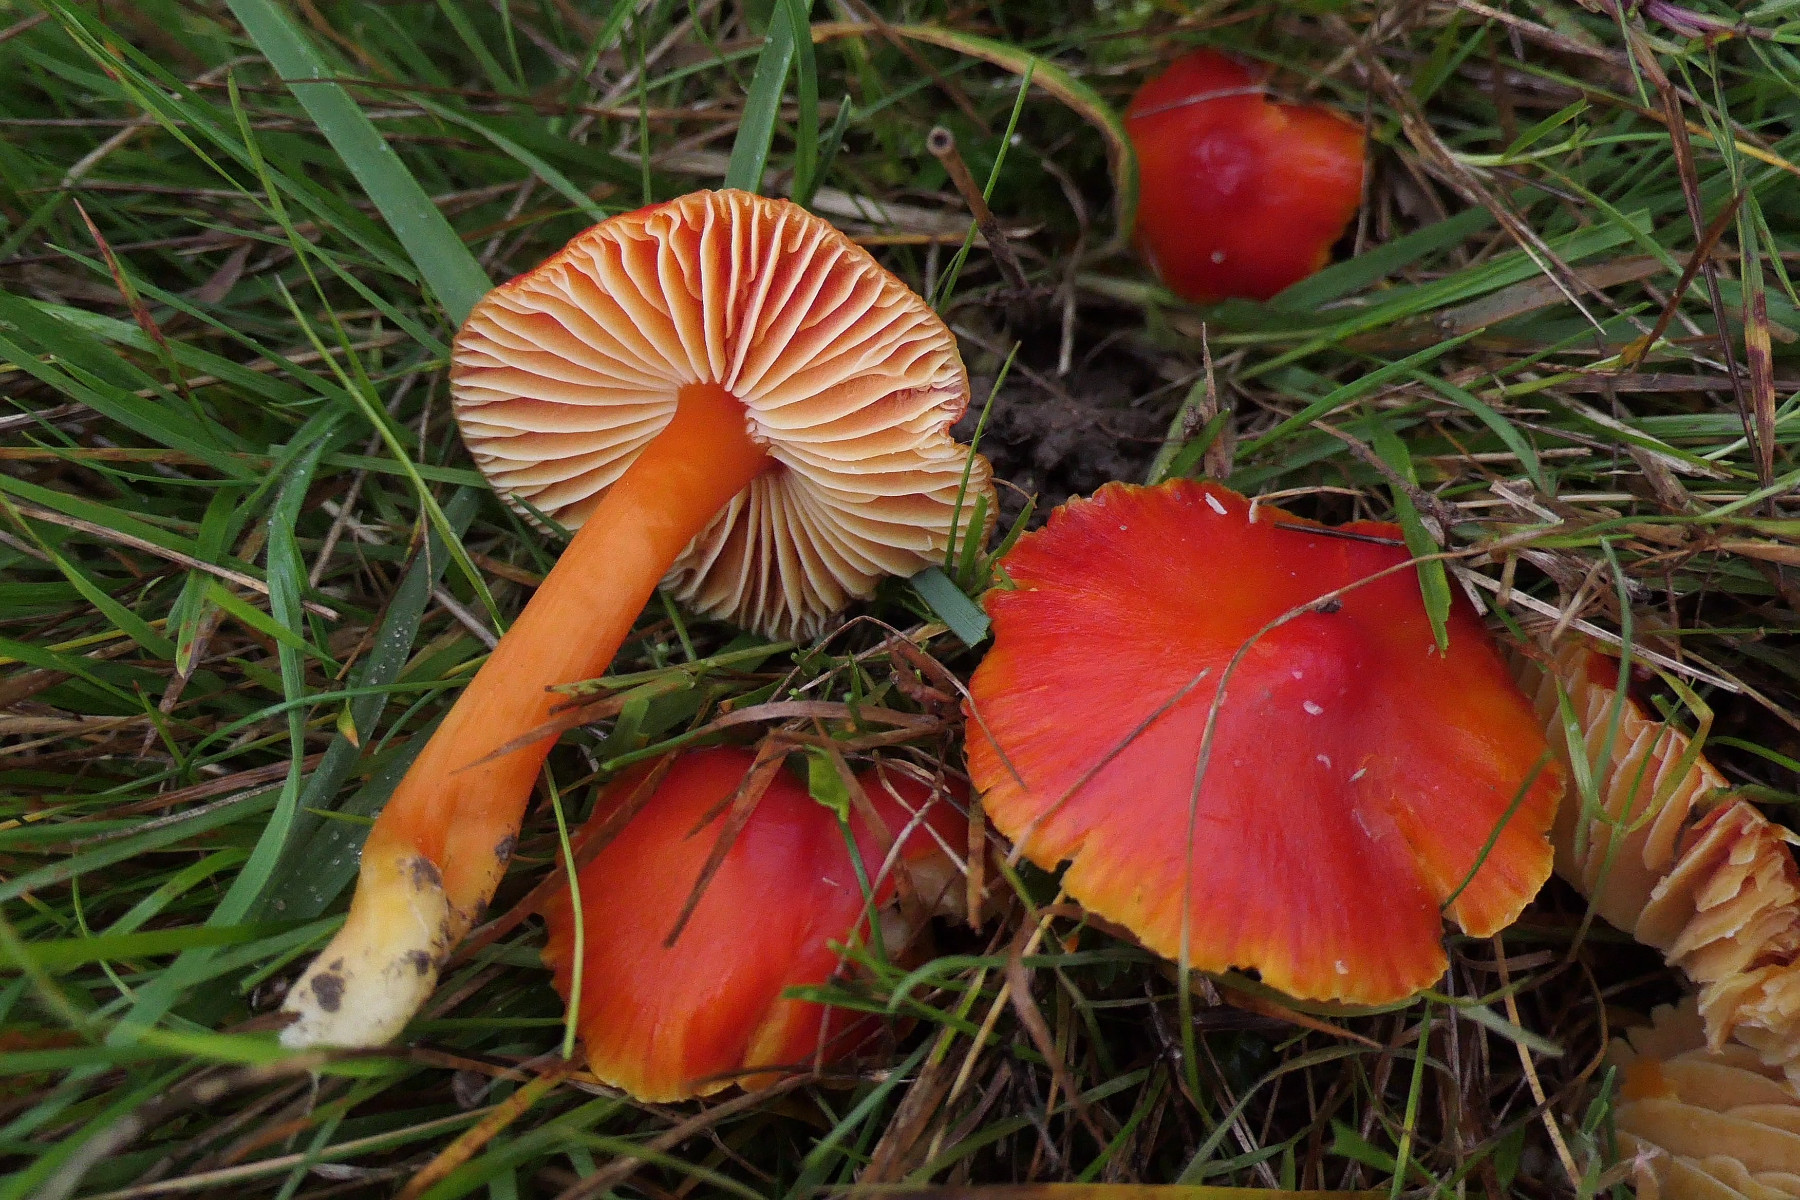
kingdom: Fungi
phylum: Basidiomycota
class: Agaricomycetes
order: Agaricales
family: Hygrophoraceae
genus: Hygrocybe
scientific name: Hygrocybe coccinea
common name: cinnober-vokshat
